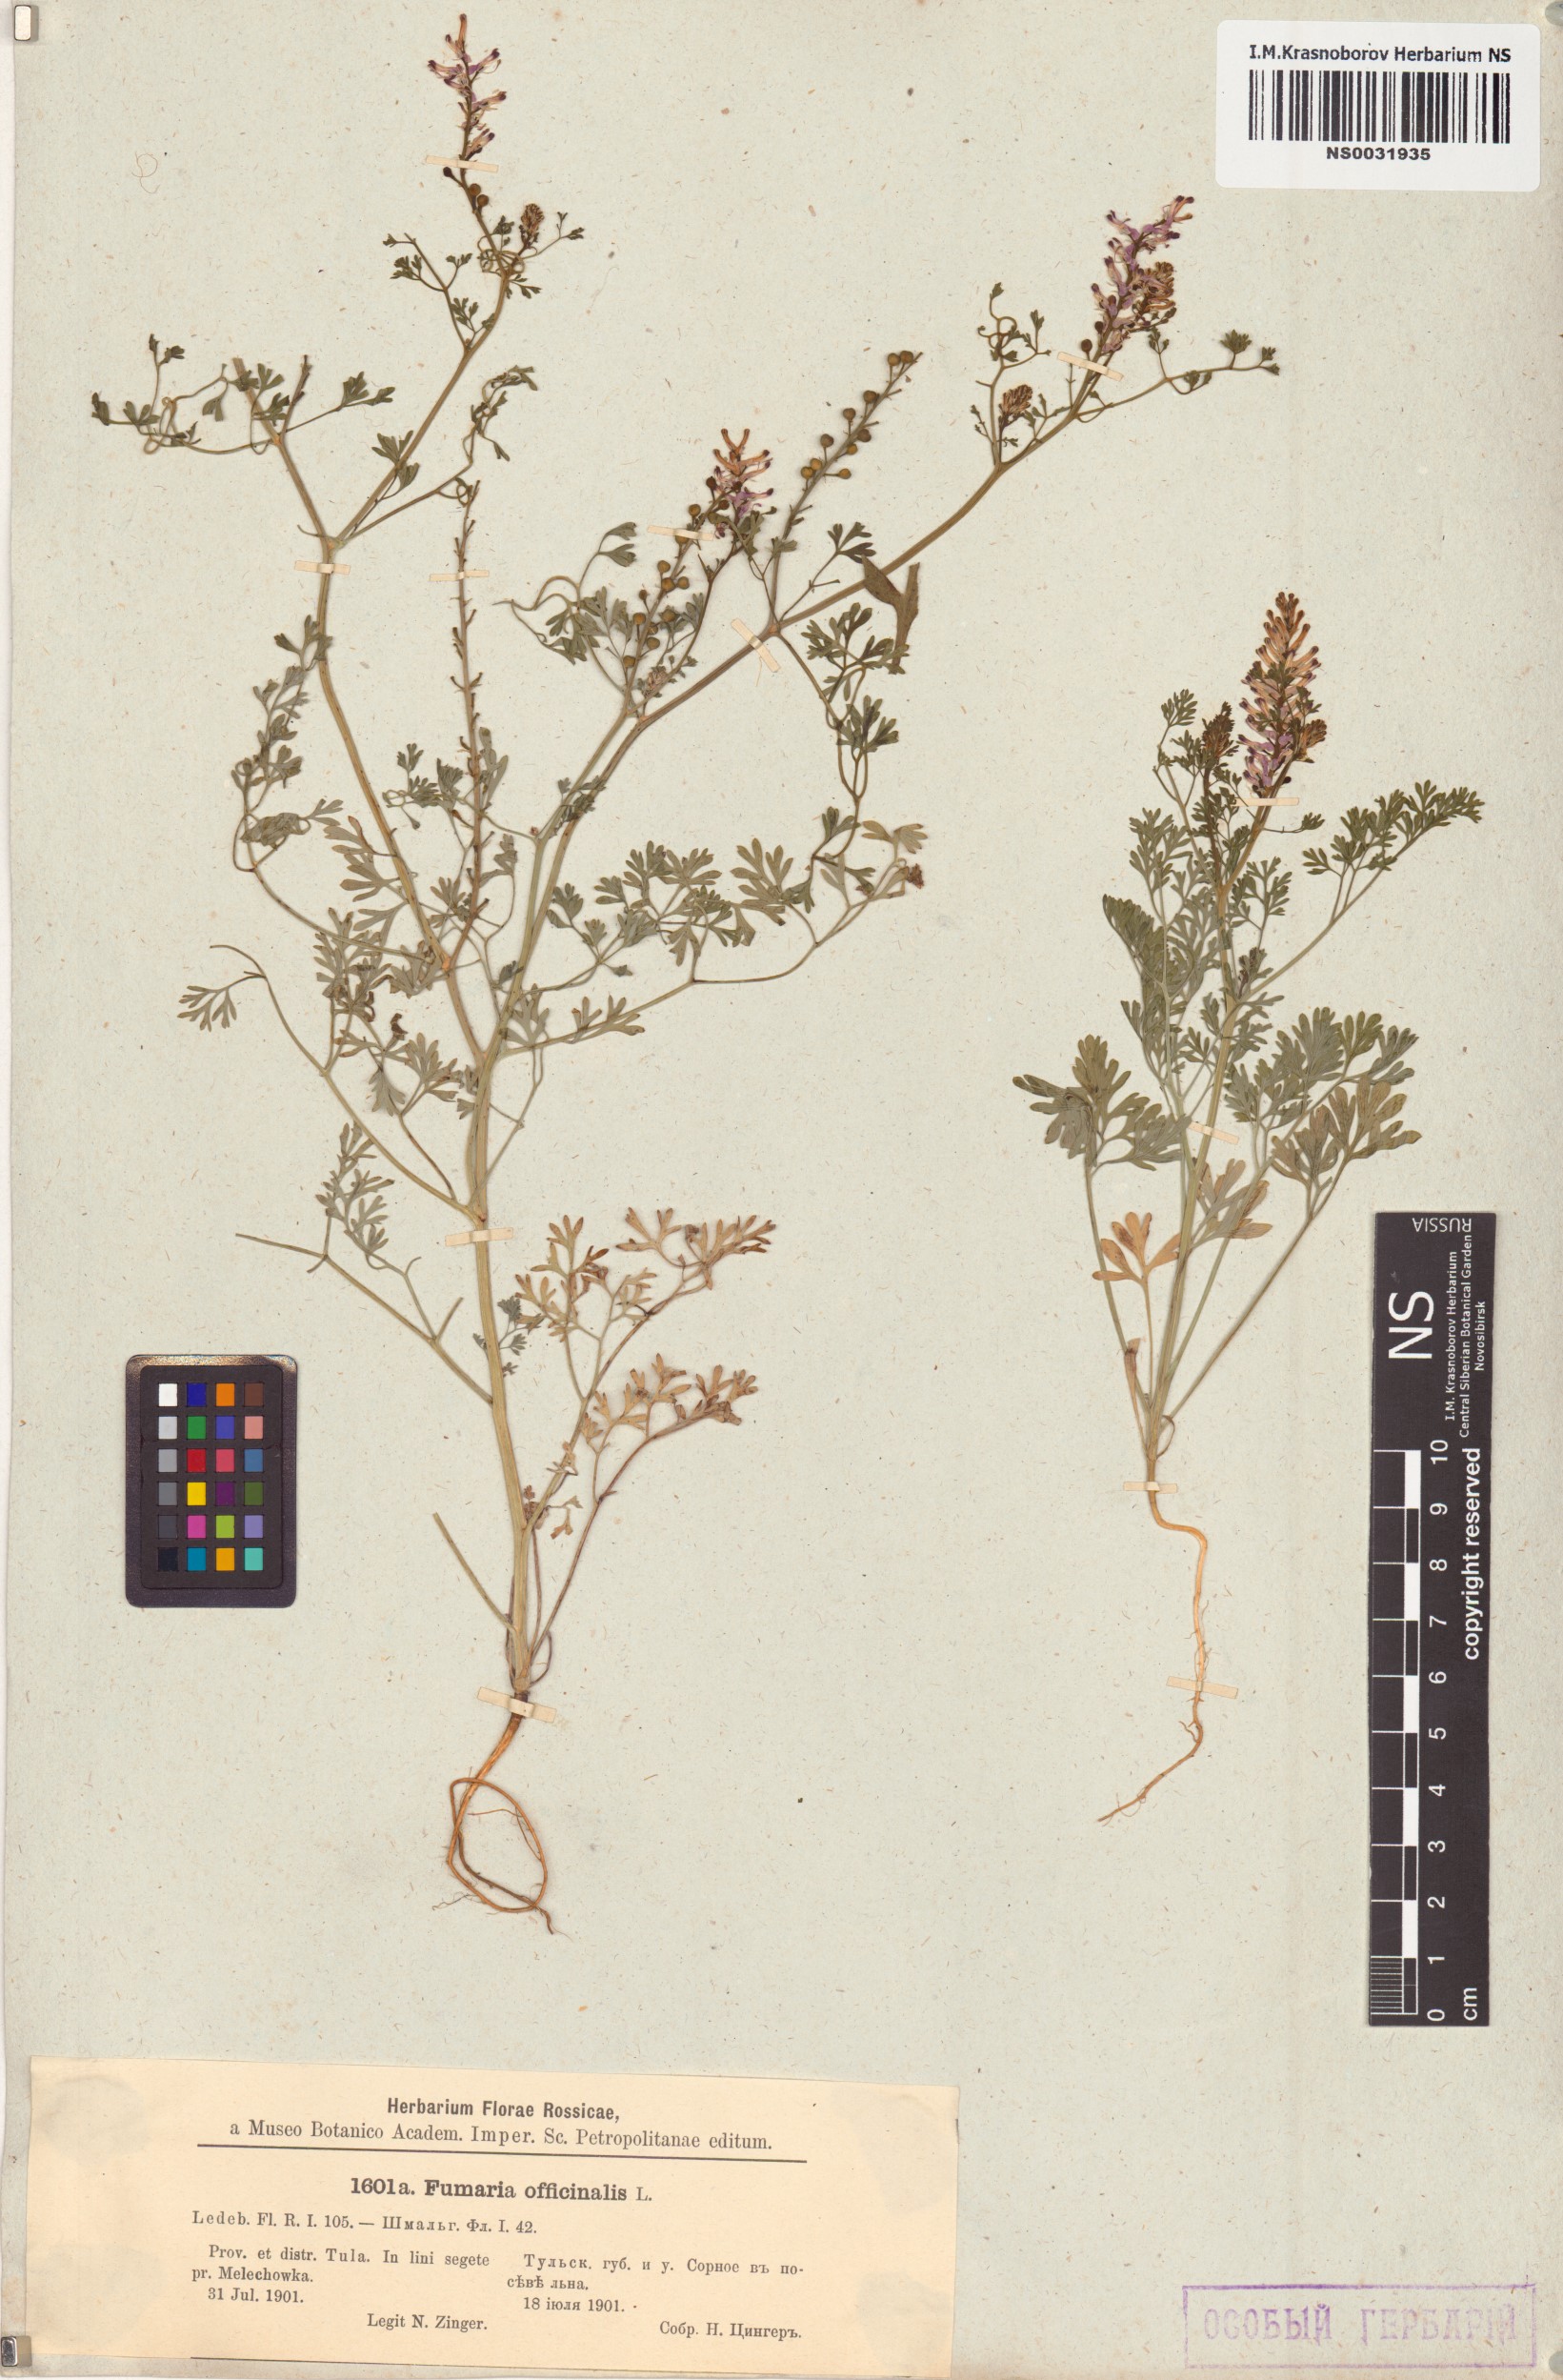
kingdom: Plantae
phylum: Tracheophyta
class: Magnoliopsida
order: Ranunculales
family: Papaveraceae
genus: Fumaria
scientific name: Fumaria officinalis
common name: Common fumitory
